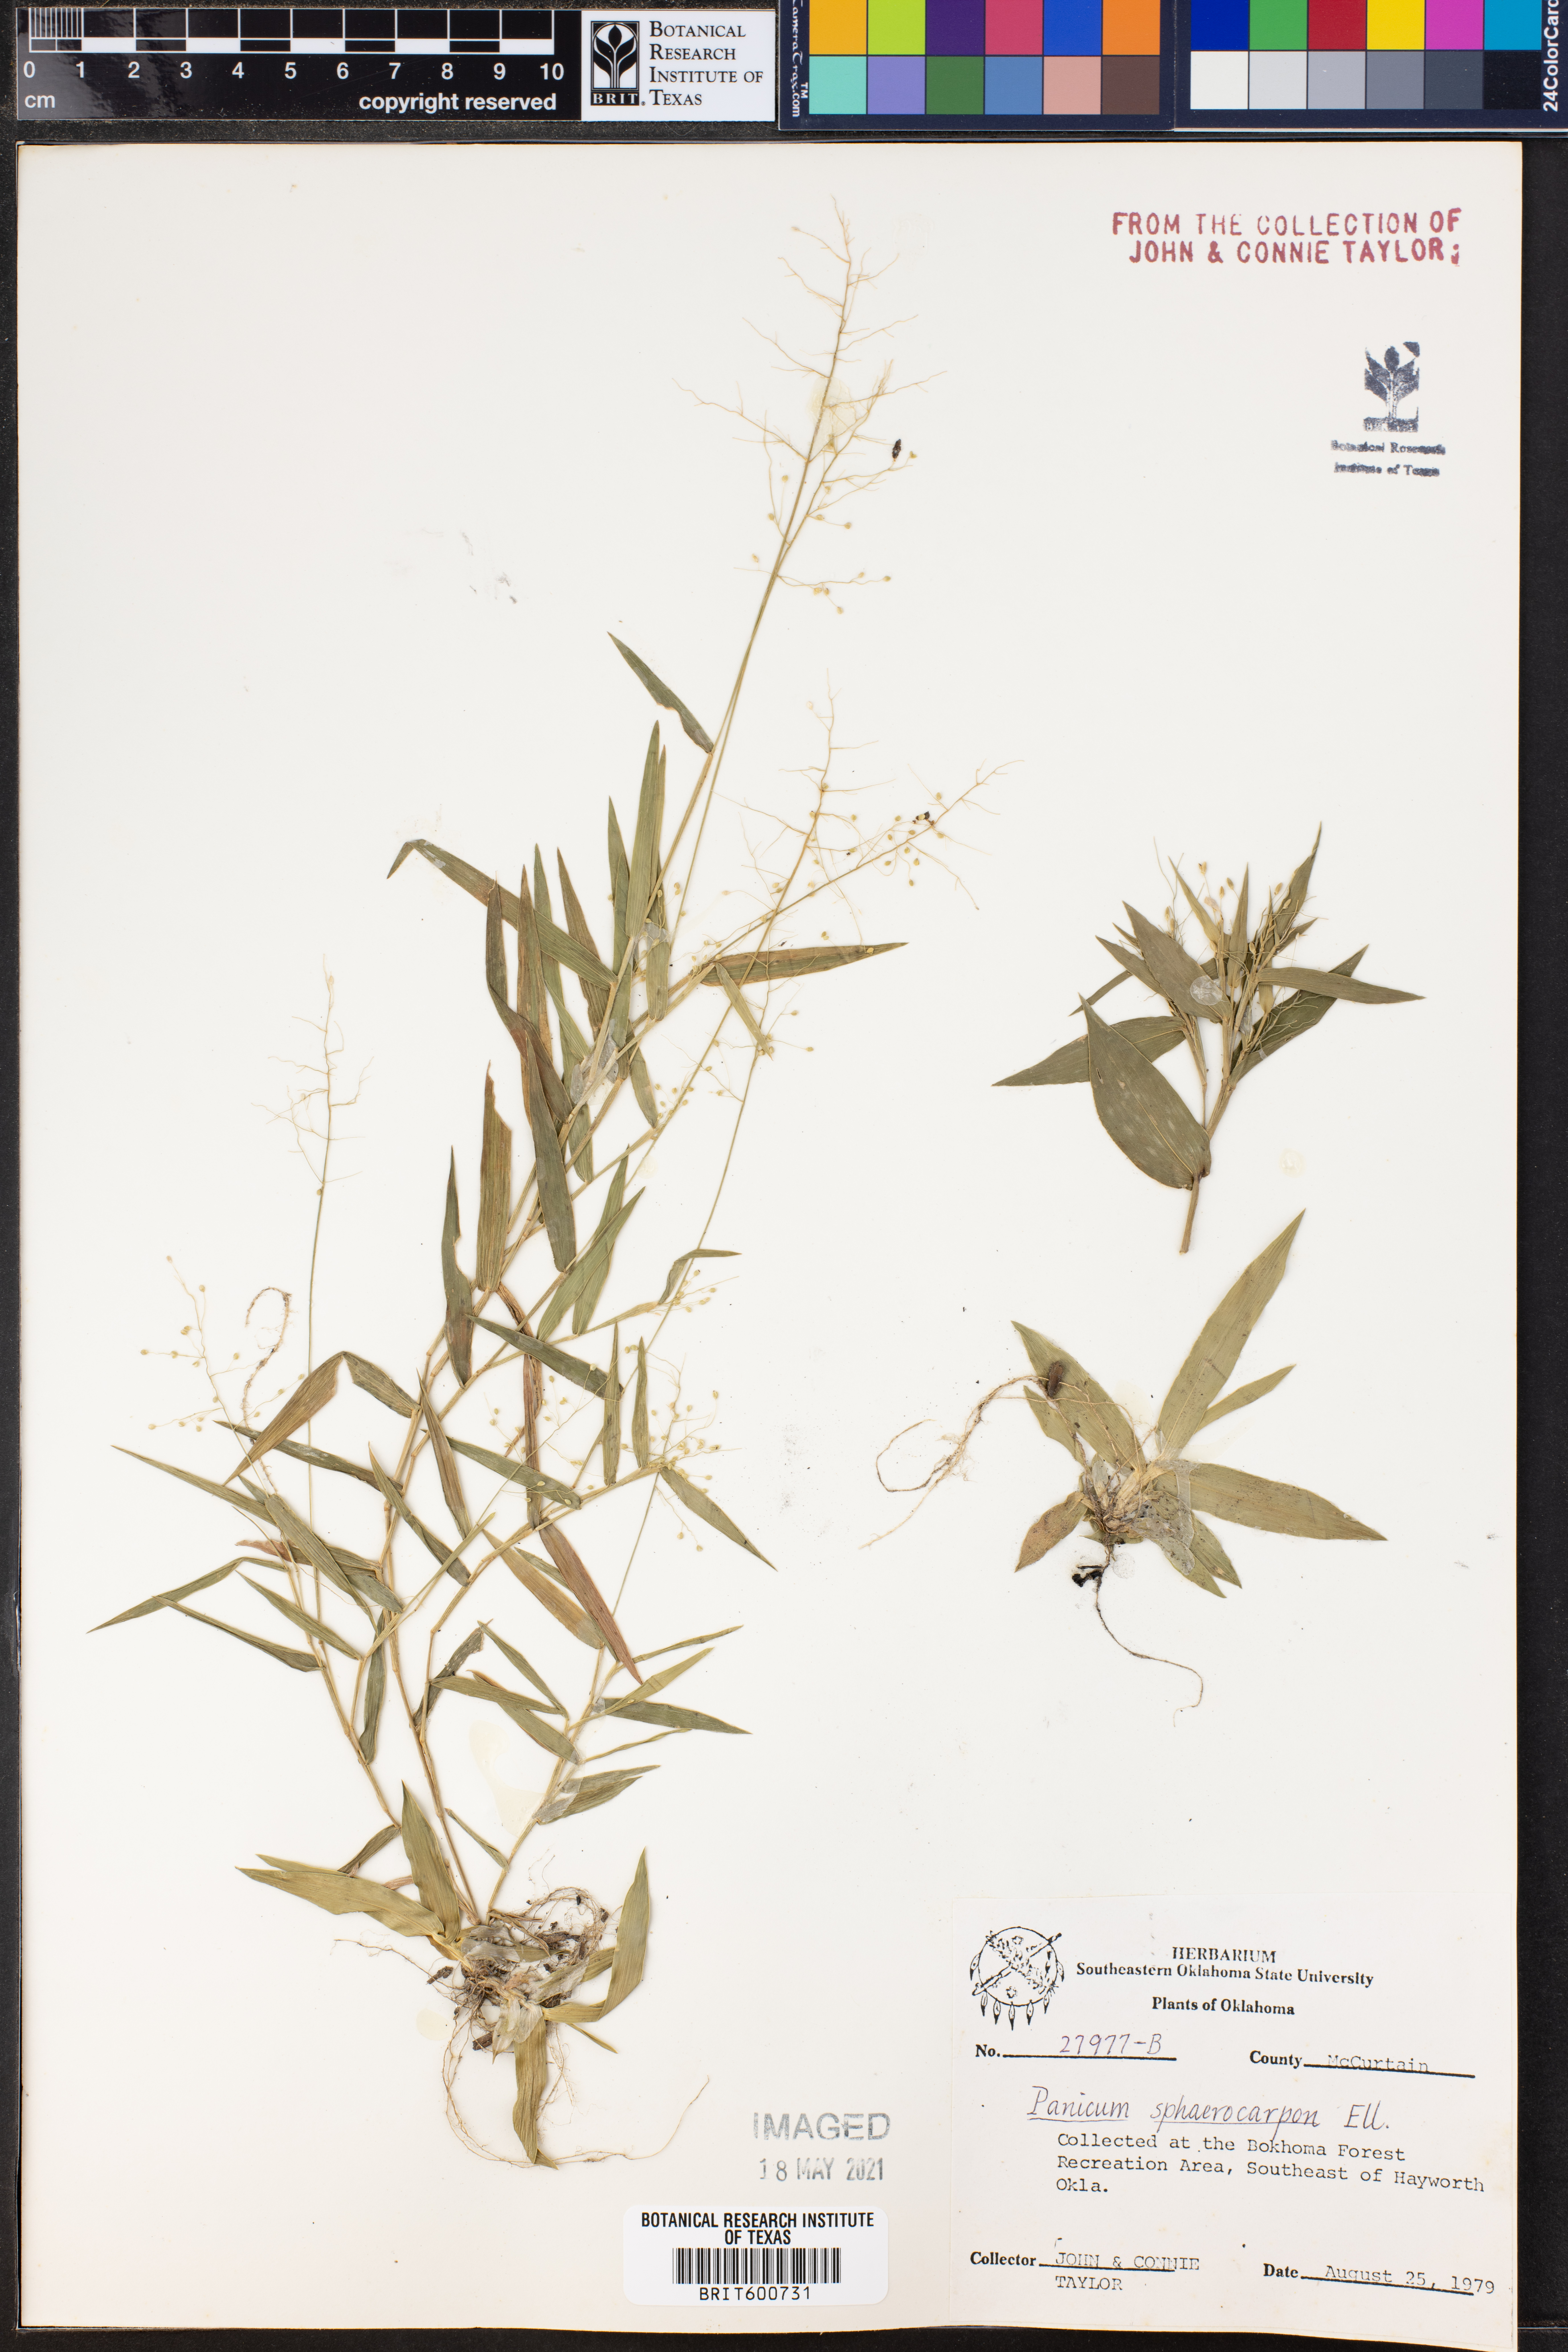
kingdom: Plantae
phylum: Tracheophyta
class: Liliopsida
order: Poales
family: Poaceae
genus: Dichanthelium
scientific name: Dichanthelium sphaerocarpon
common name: Round-fruited panicgrass
